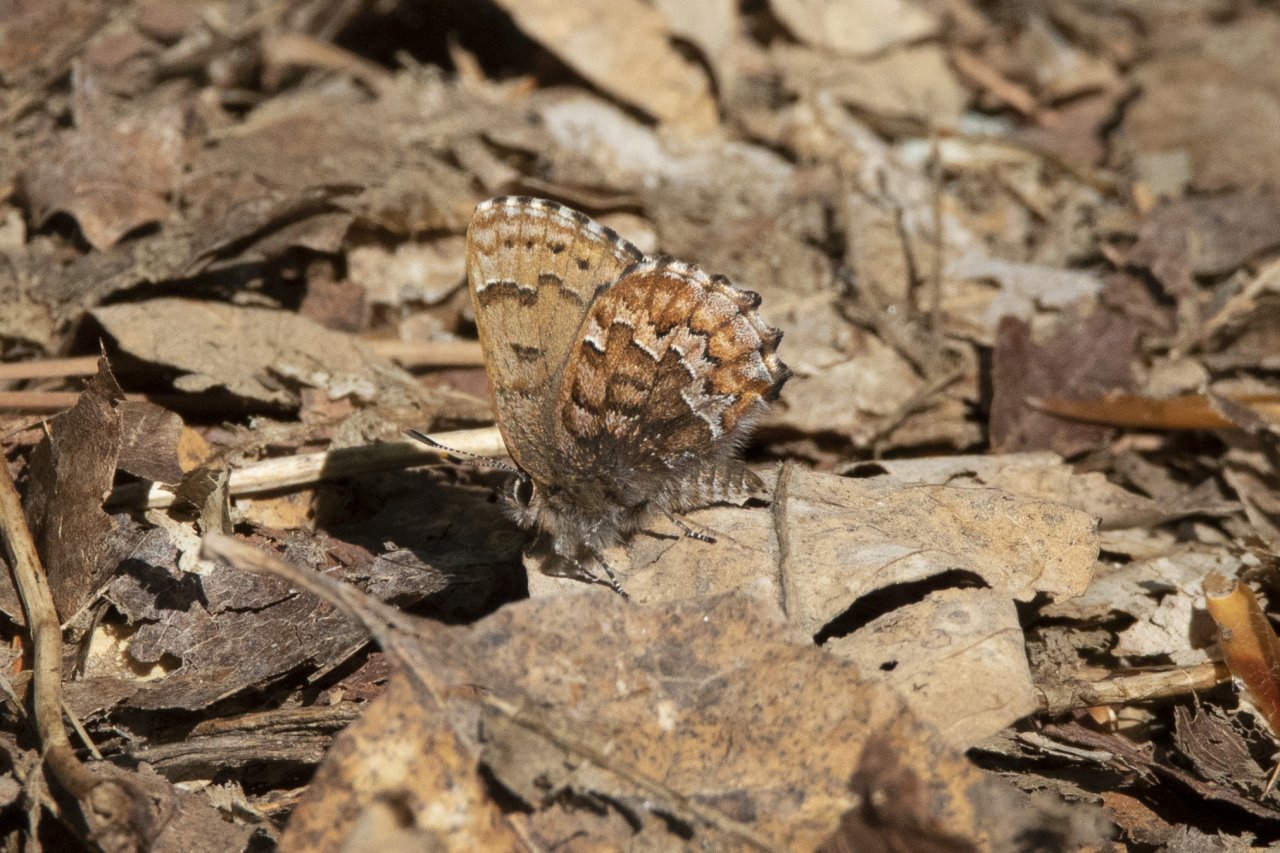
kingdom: Animalia
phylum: Arthropoda
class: Insecta
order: Lepidoptera
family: Lycaenidae
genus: Incisalia
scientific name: Incisalia niphon
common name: Eastern Pine Elfin
